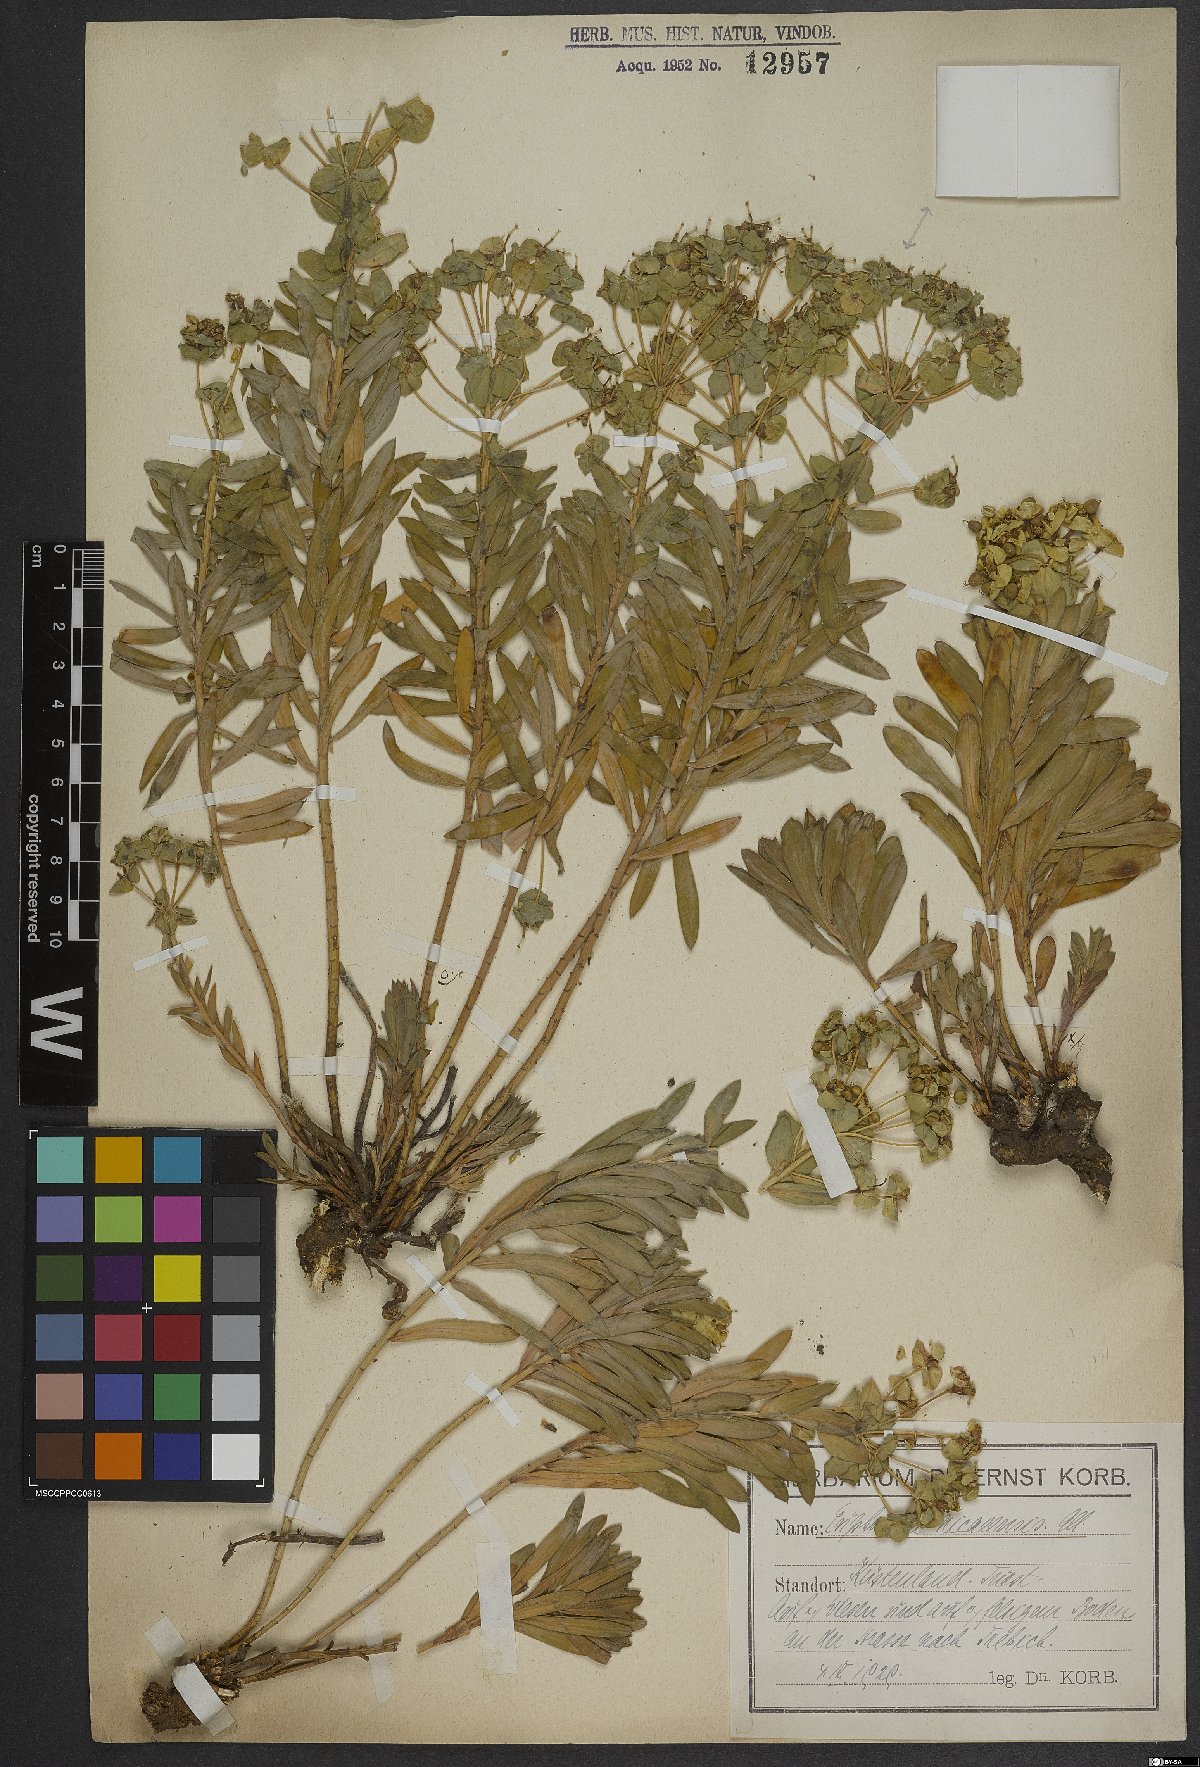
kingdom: Plantae
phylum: Tracheophyta
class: Magnoliopsida
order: Malpighiales
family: Euphorbiaceae
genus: Euphorbia
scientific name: Euphorbia nicaeensis
